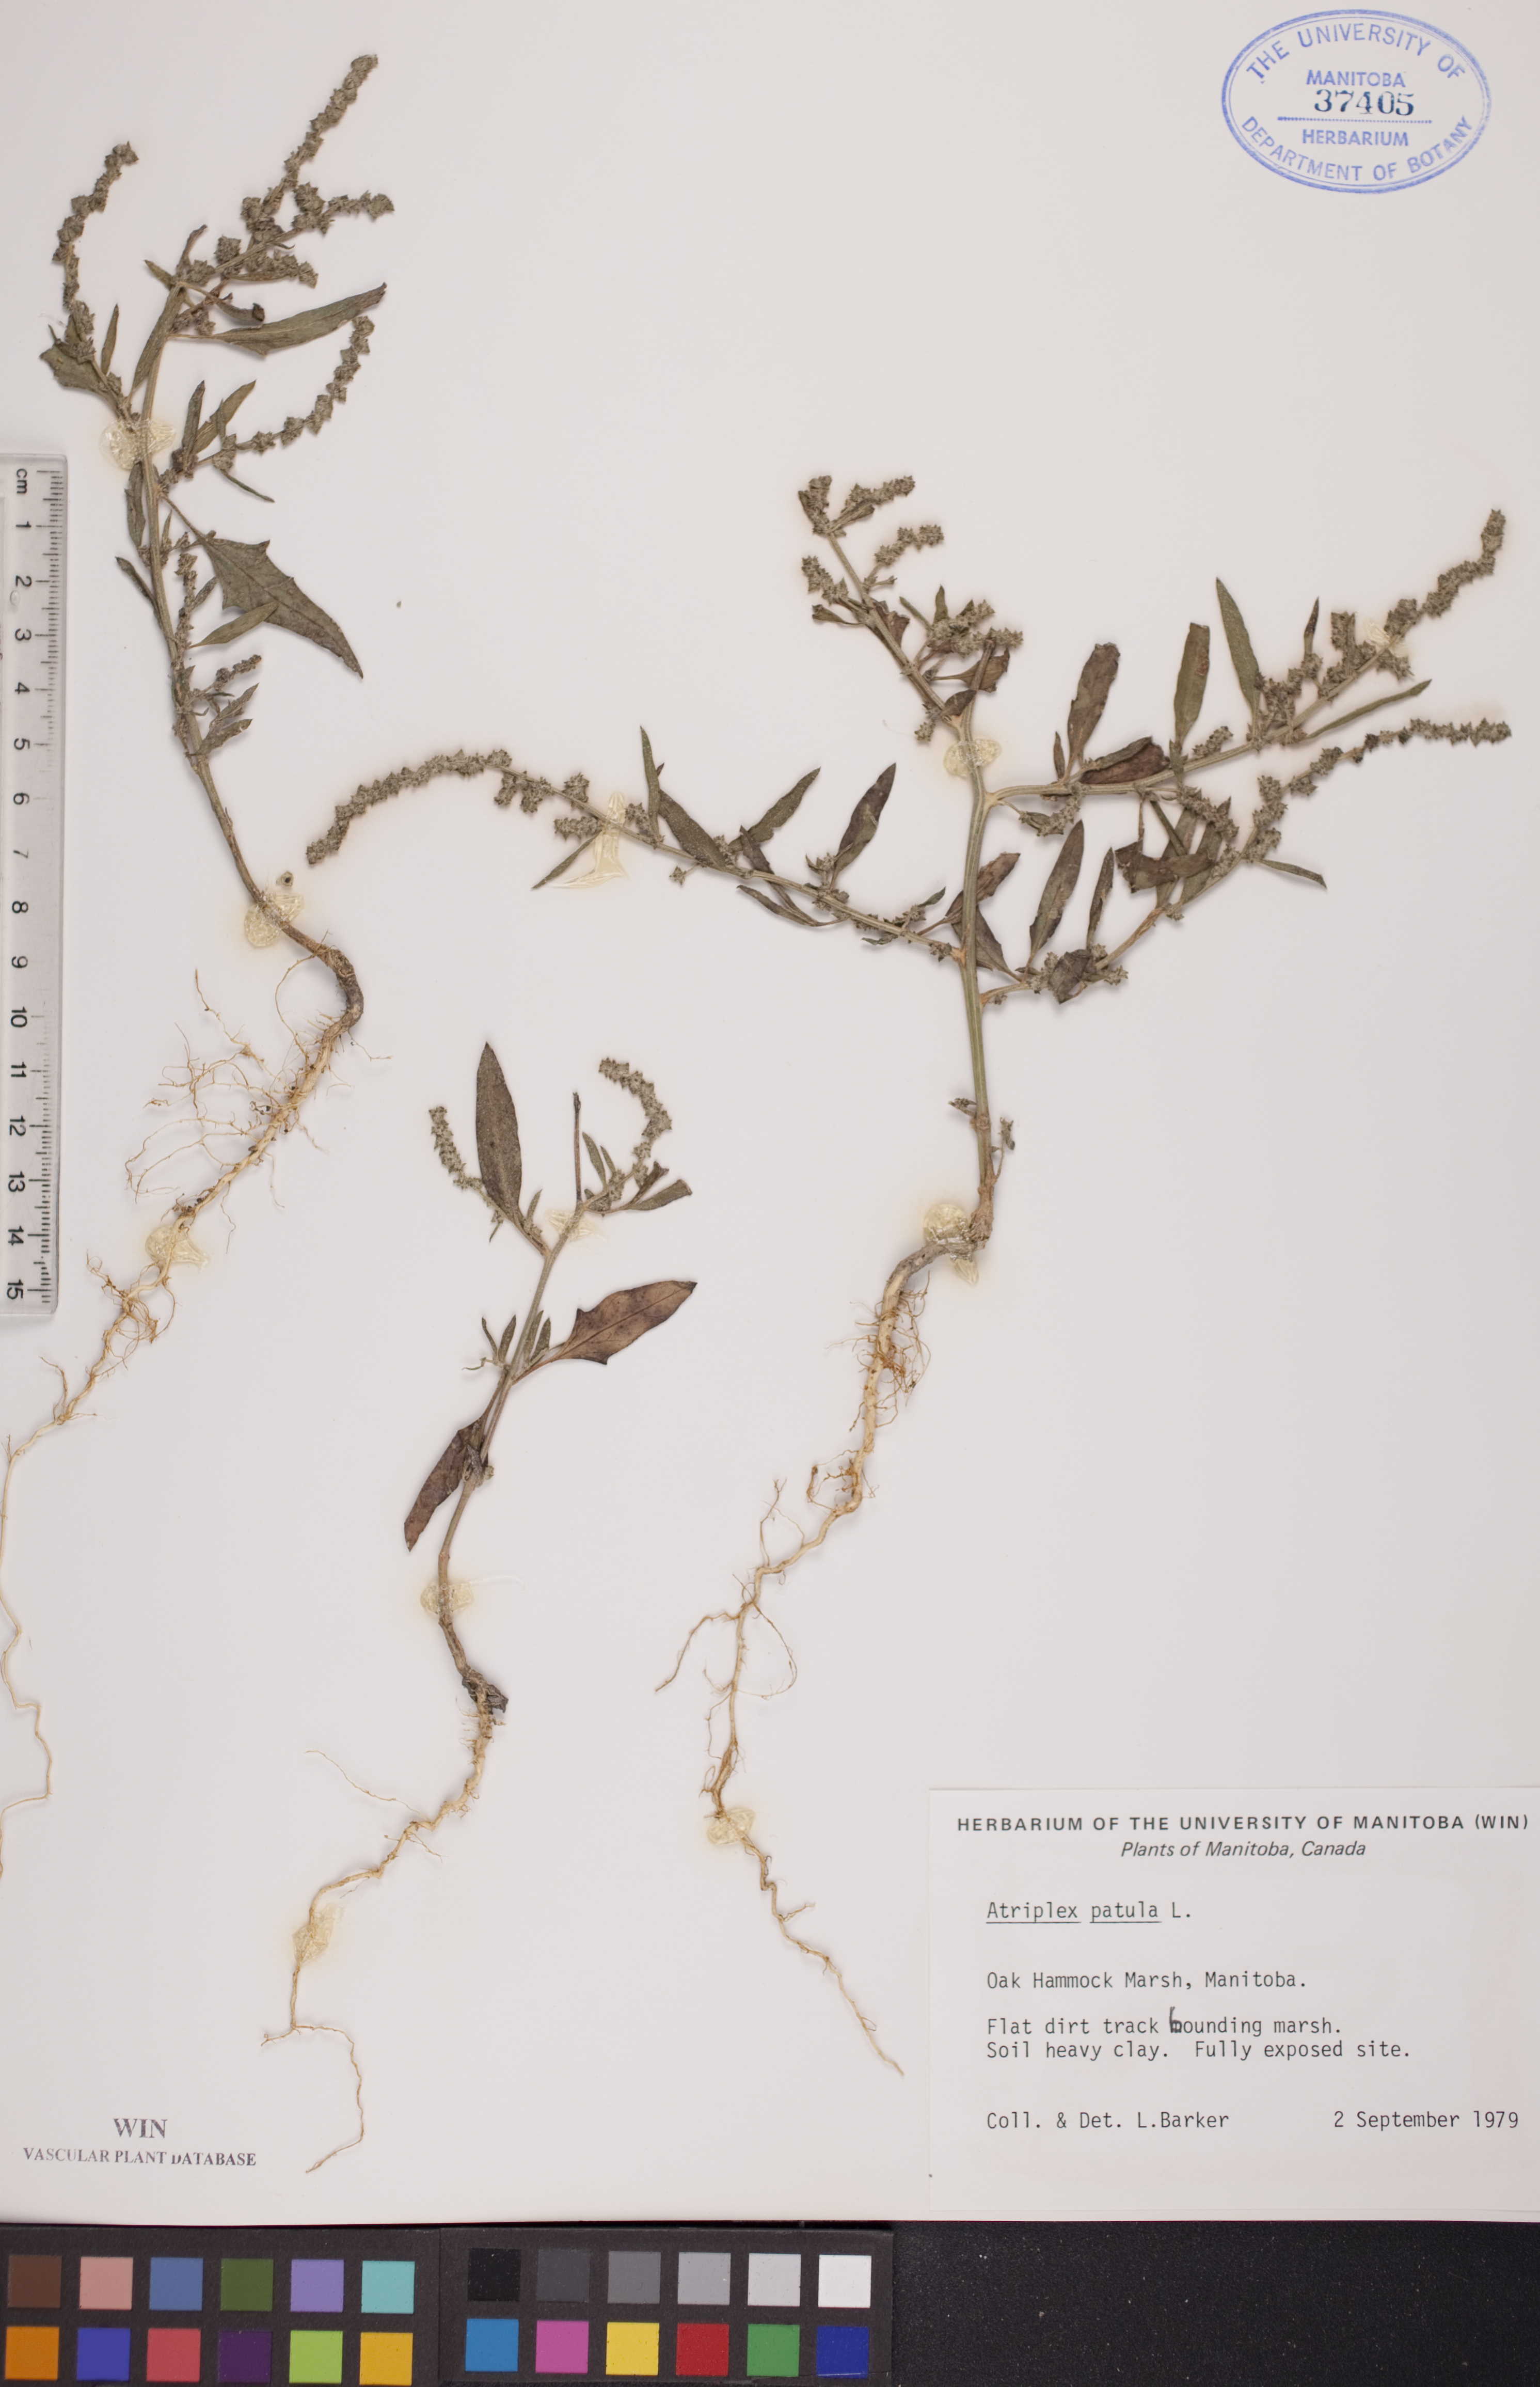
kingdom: Plantae
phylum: Tracheophyta
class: Magnoliopsida
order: Caryophyllales
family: Amaranthaceae
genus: Atriplex
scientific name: Atriplex patula
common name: Common orache
